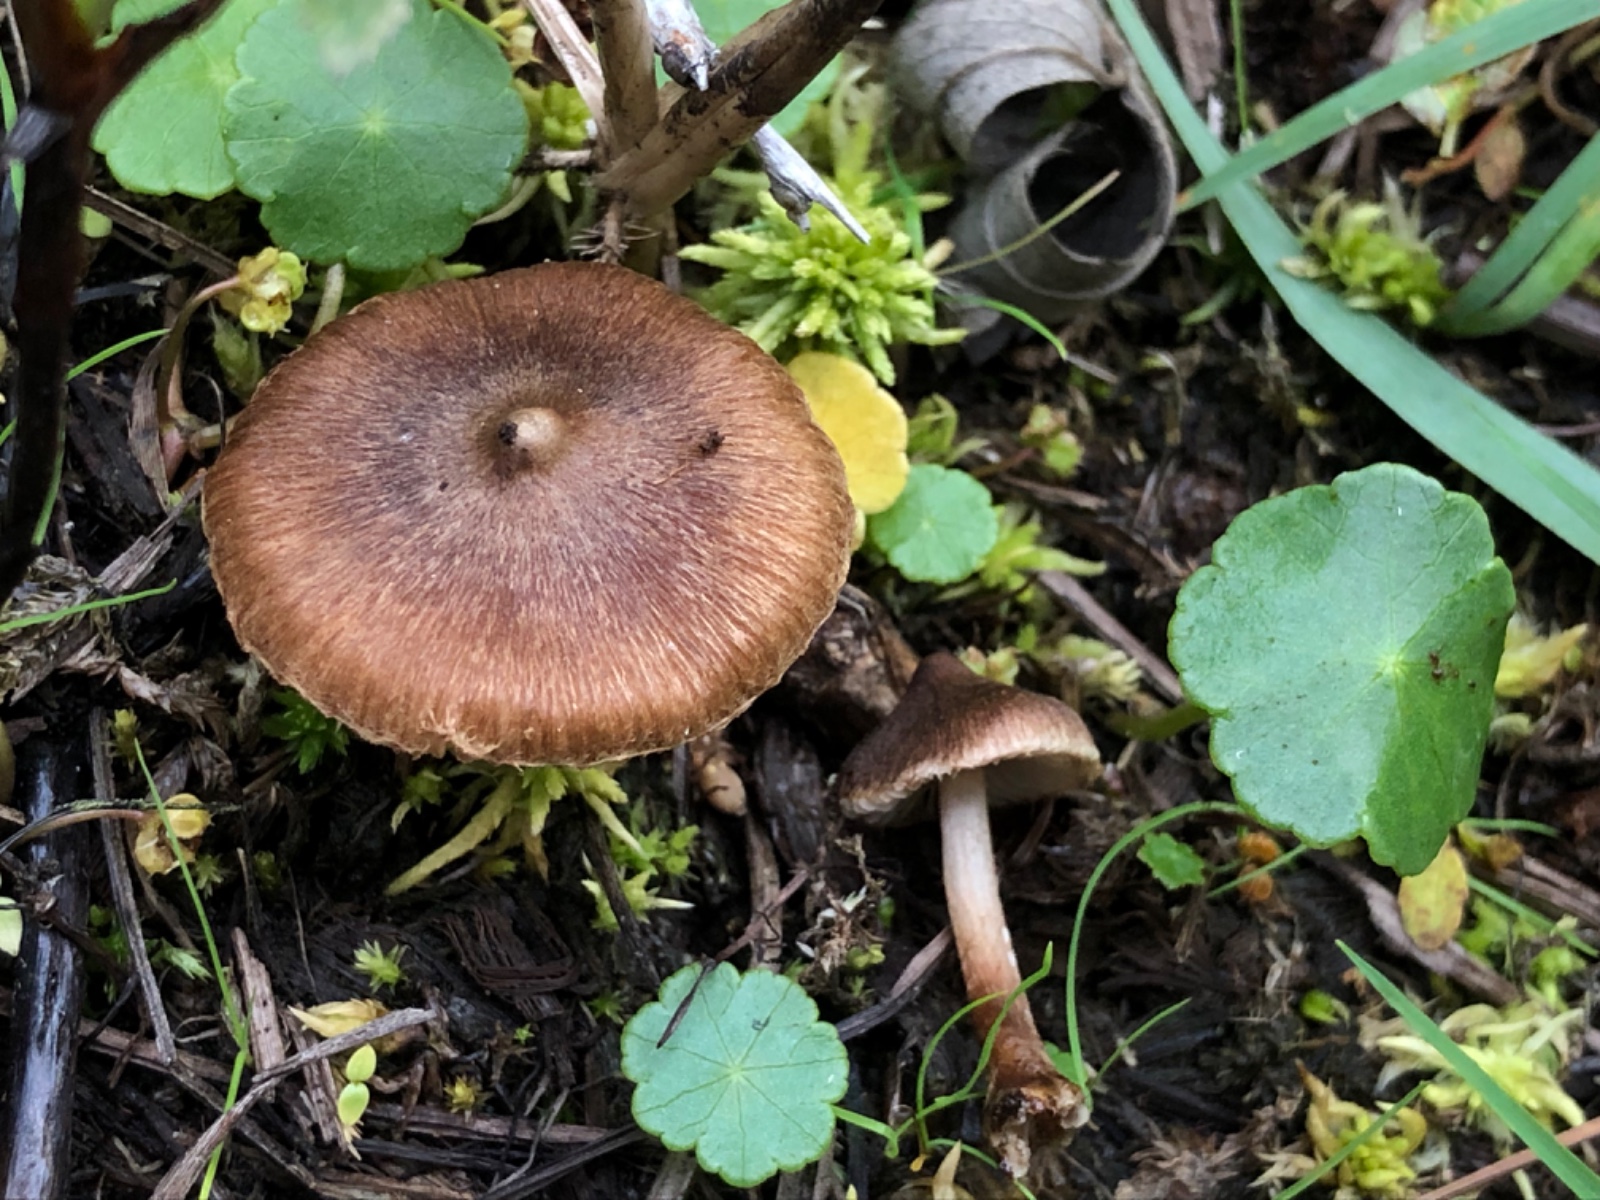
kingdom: Fungi
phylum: Basidiomycota
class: Agaricomycetes
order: Agaricales
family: Inocybaceae
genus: Inocybe
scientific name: Inocybe acuta
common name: papil-trævlhat
